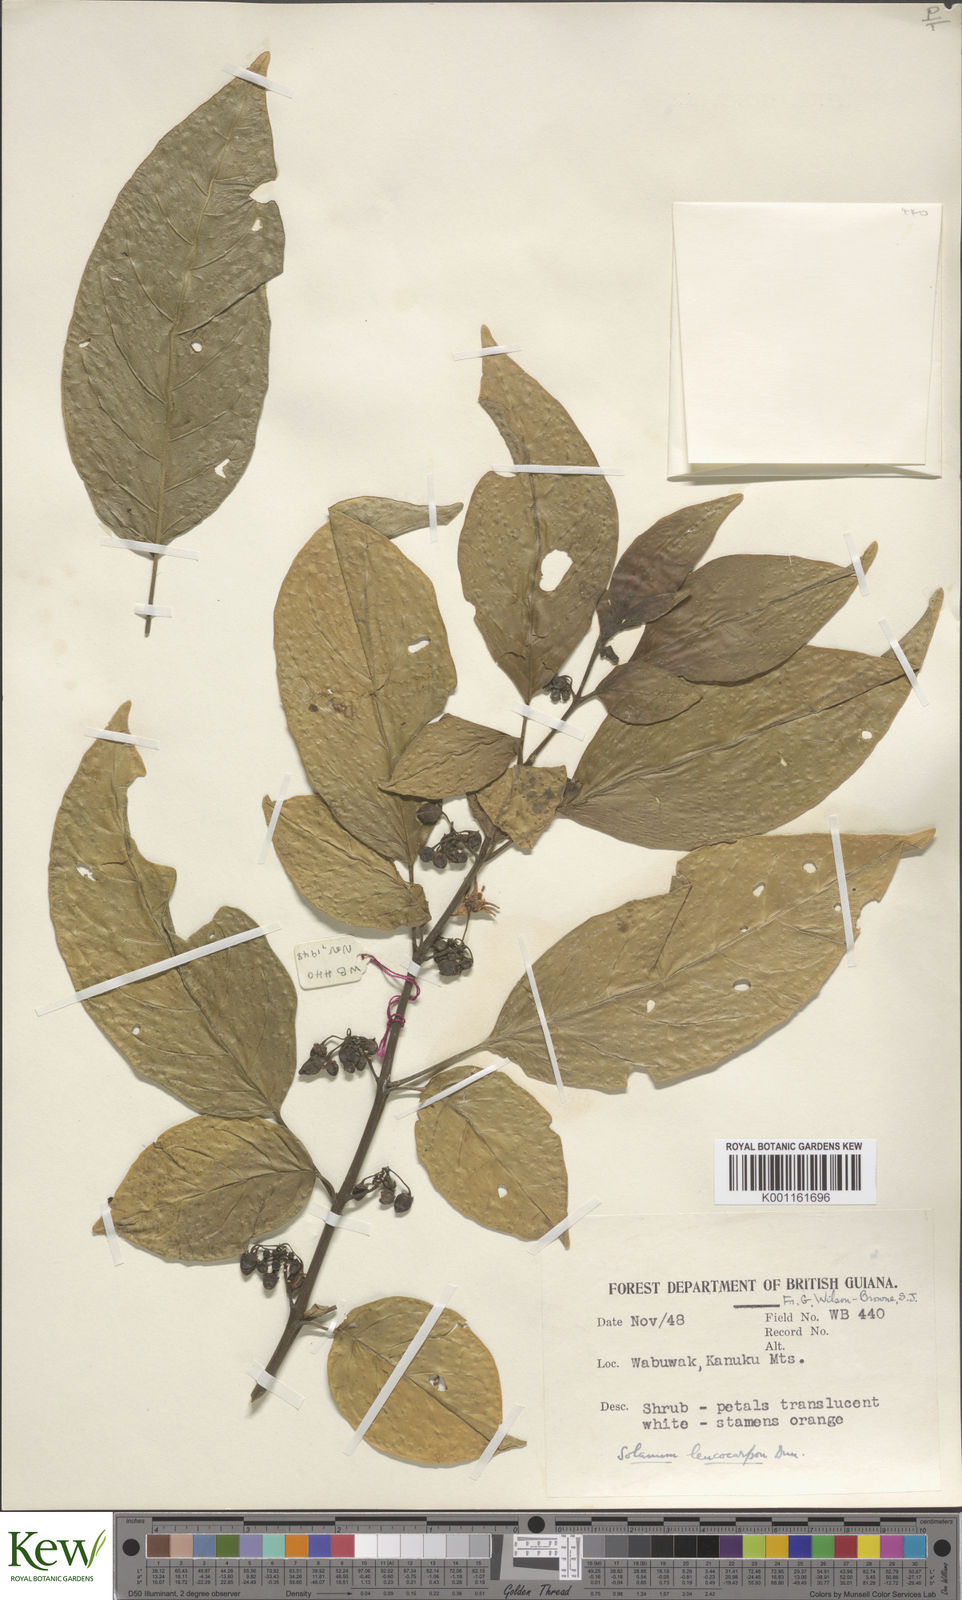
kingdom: Plantae
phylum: Tracheophyta
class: Magnoliopsida
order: Solanales
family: Solanaceae
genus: Solanum
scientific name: Solanum leucocarpon
